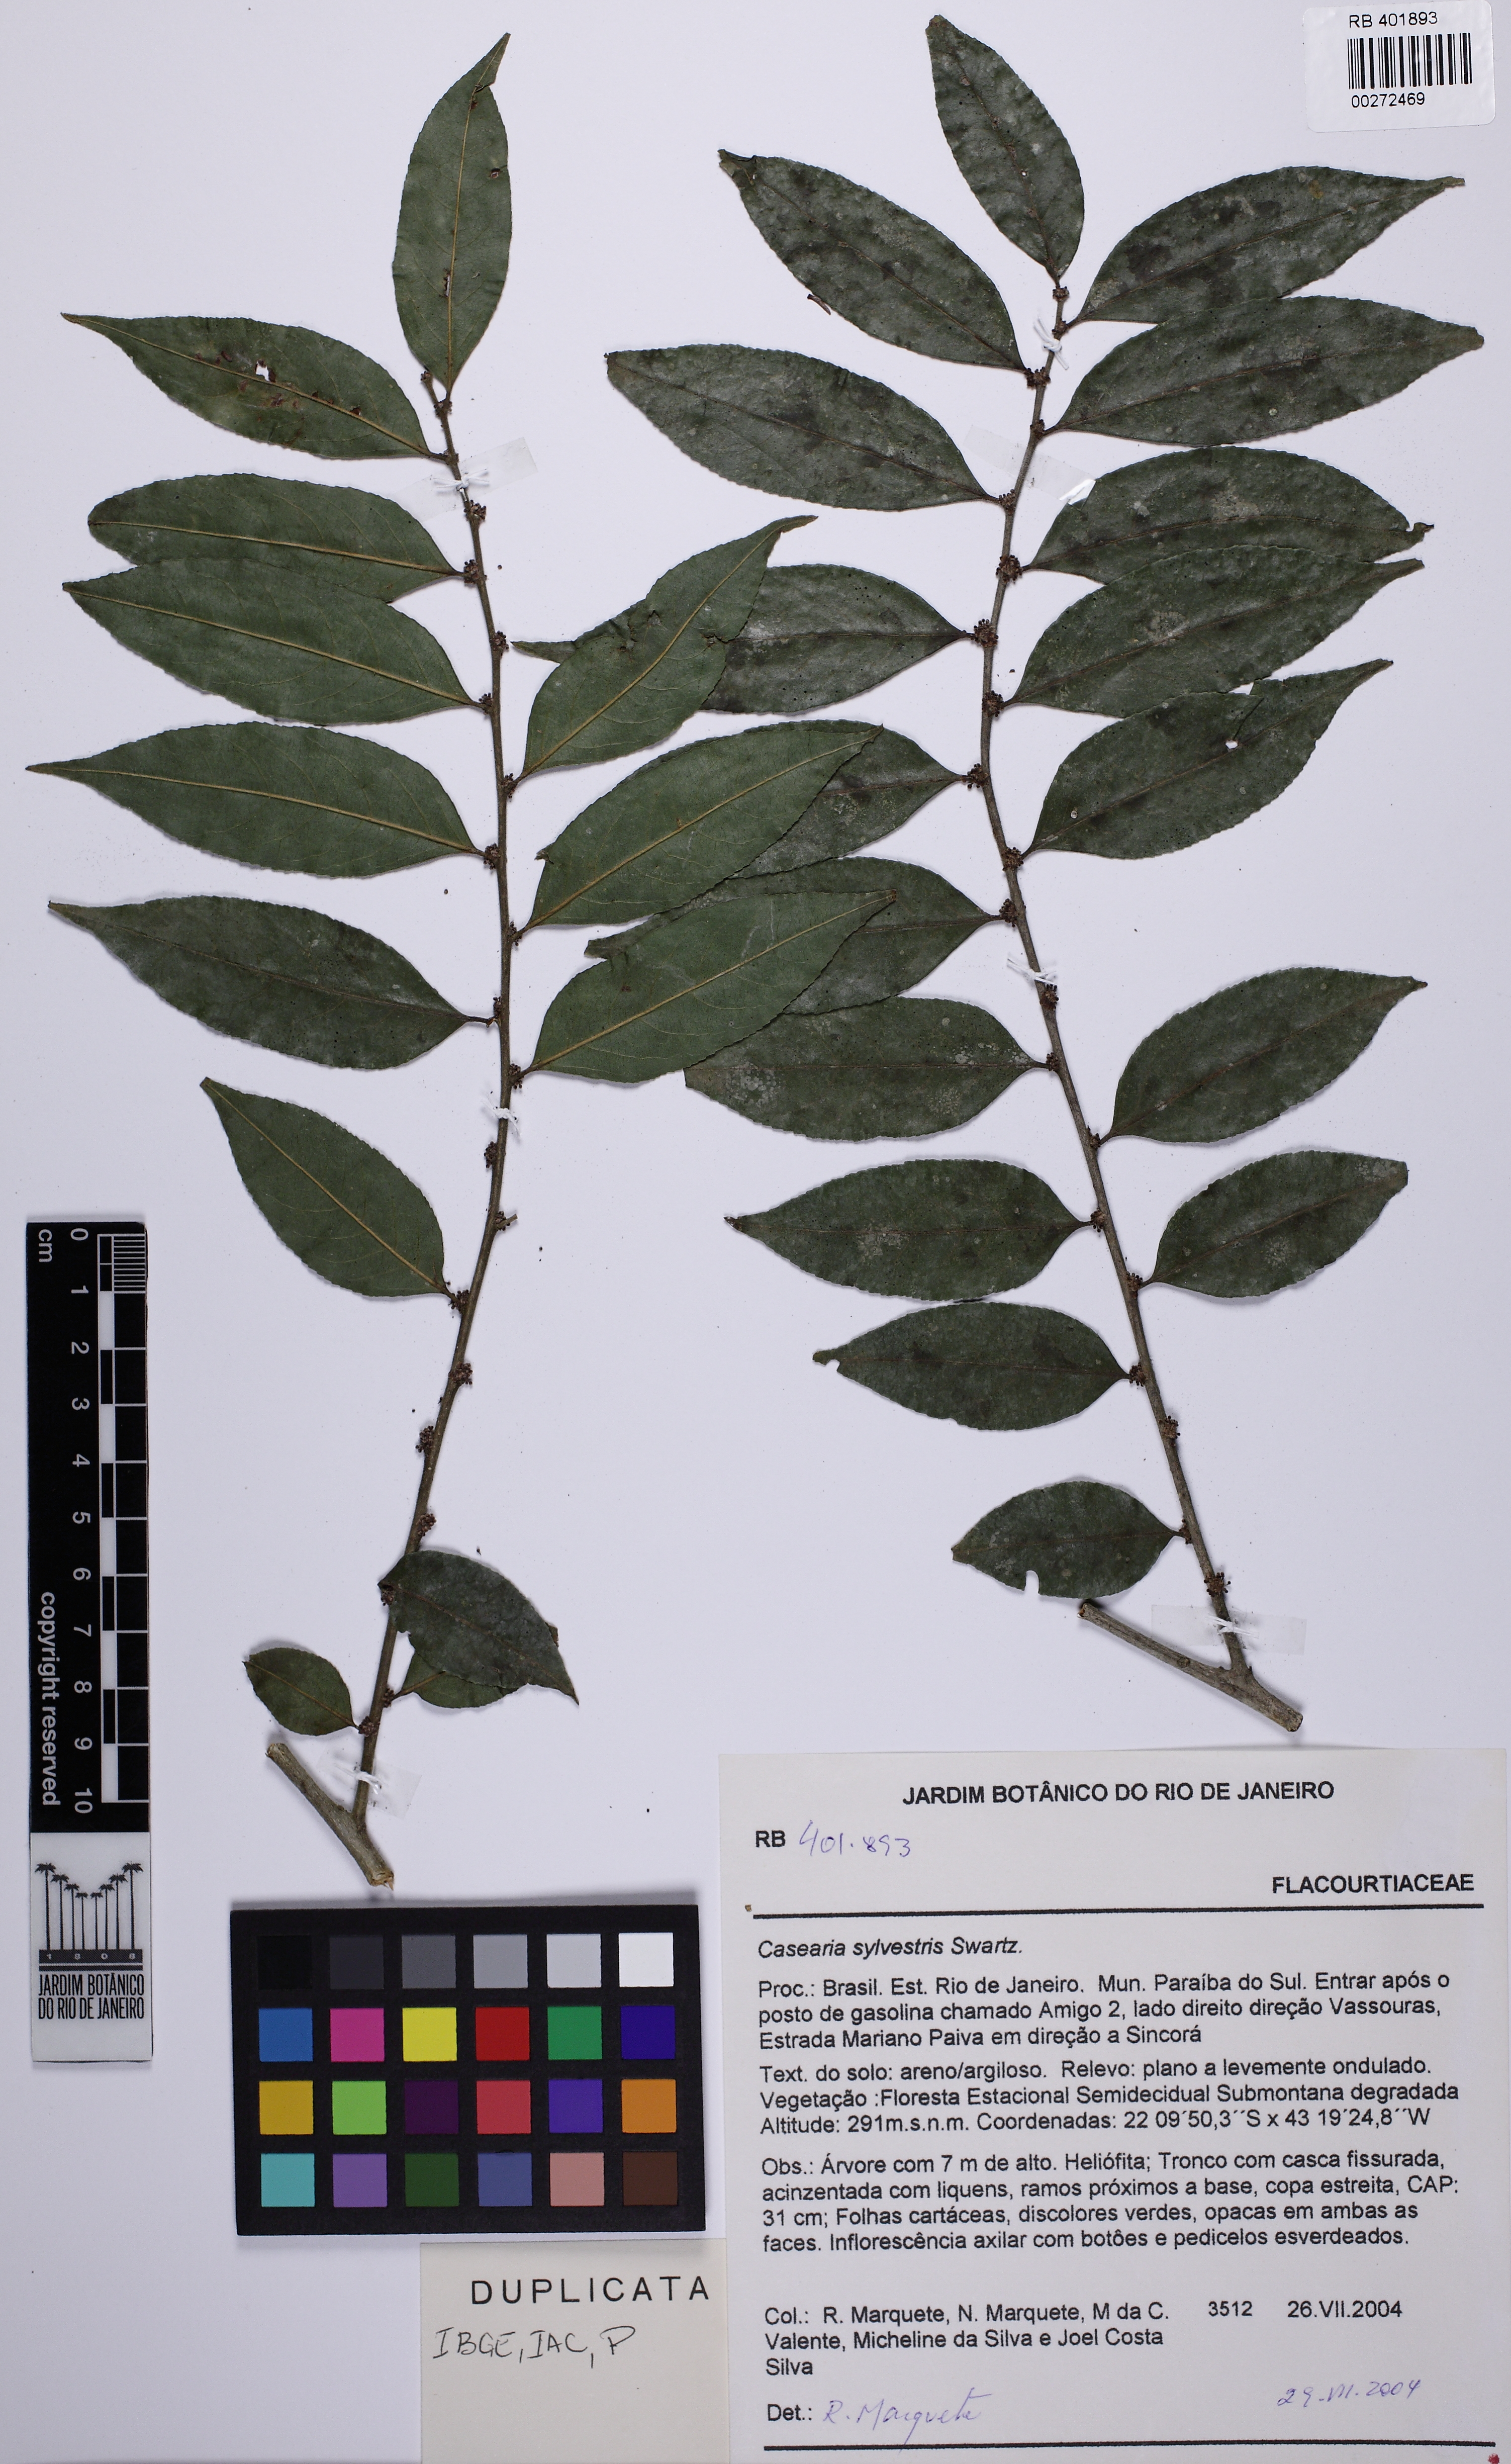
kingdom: Plantae
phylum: Tracheophyta
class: Magnoliopsida
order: Malpighiales
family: Salicaceae
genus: Casearia
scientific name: Casearia sylvestris
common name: Wild sage
